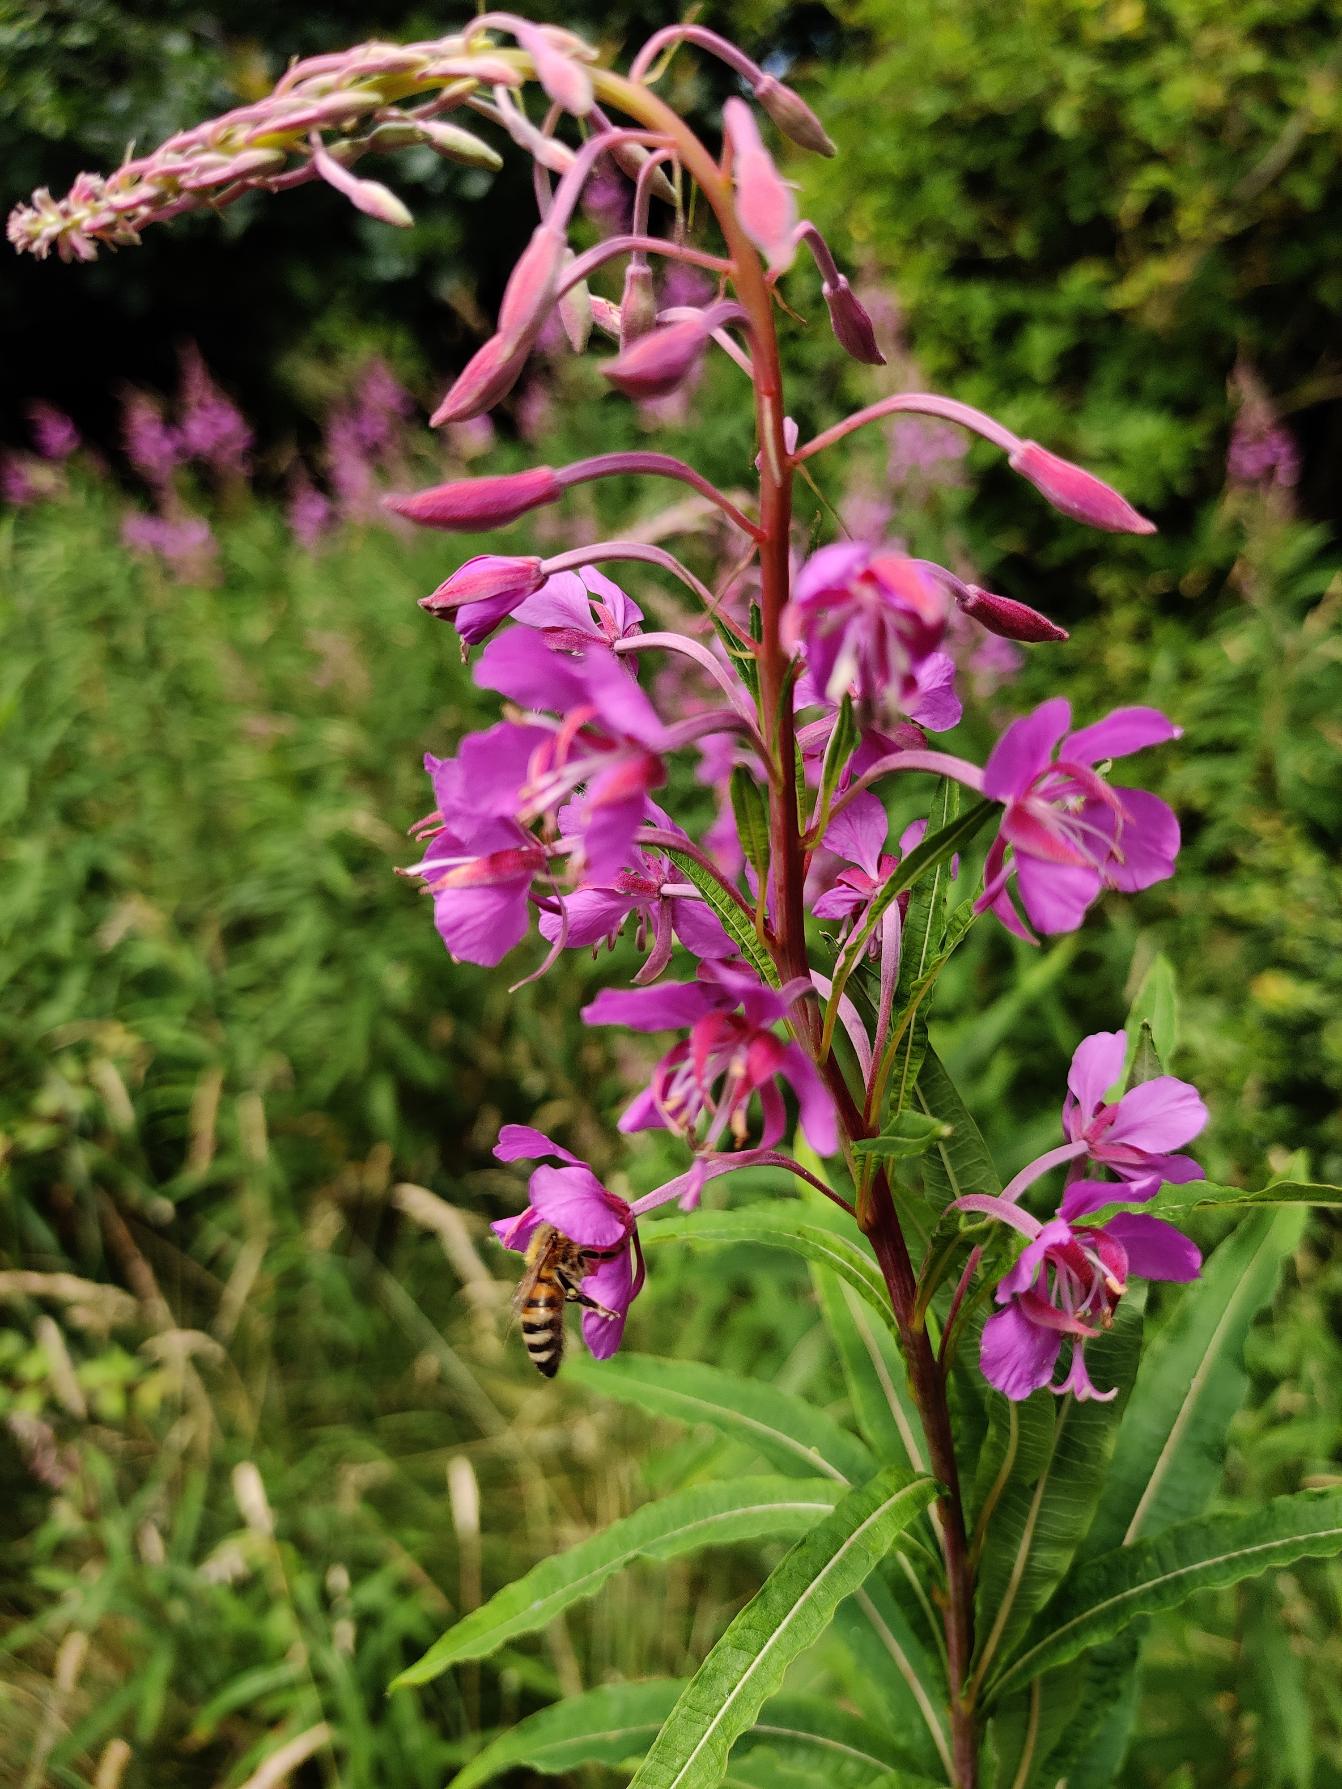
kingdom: Plantae
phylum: Tracheophyta
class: Magnoliopsida
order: Myrtales
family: Onagraceae
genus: Chamaenerion
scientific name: Chamaenerion angustifolium
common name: Gederams
